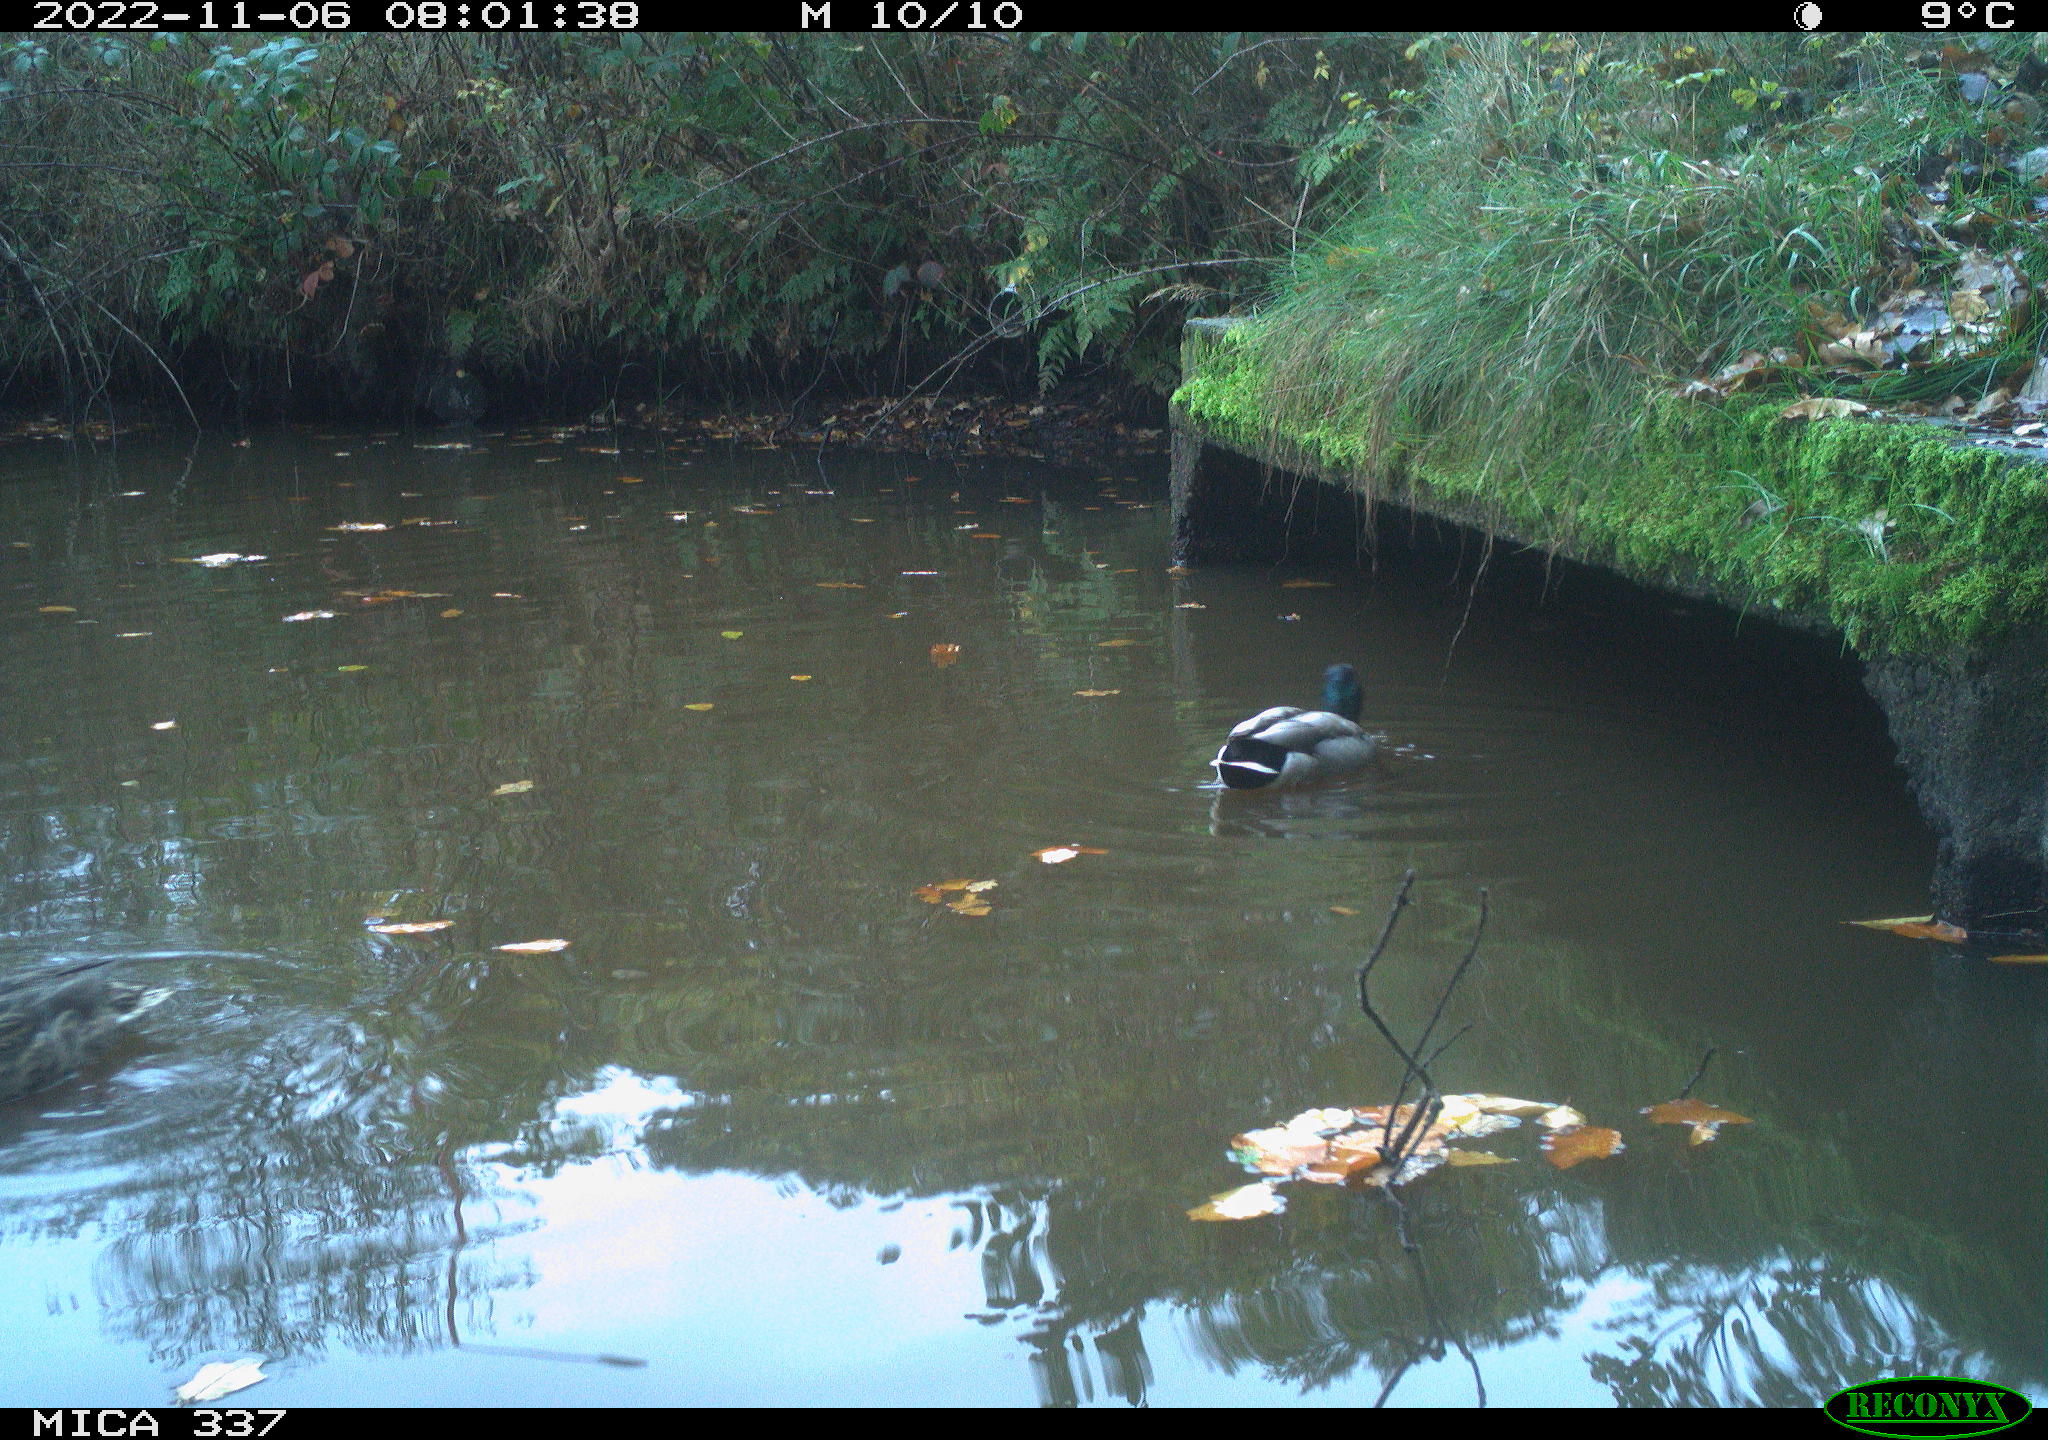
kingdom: Animalia
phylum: Chordata
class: Aves
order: Anseriformes
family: Anatidae
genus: Anas
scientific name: Anas platyrhynchos
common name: Mallard
